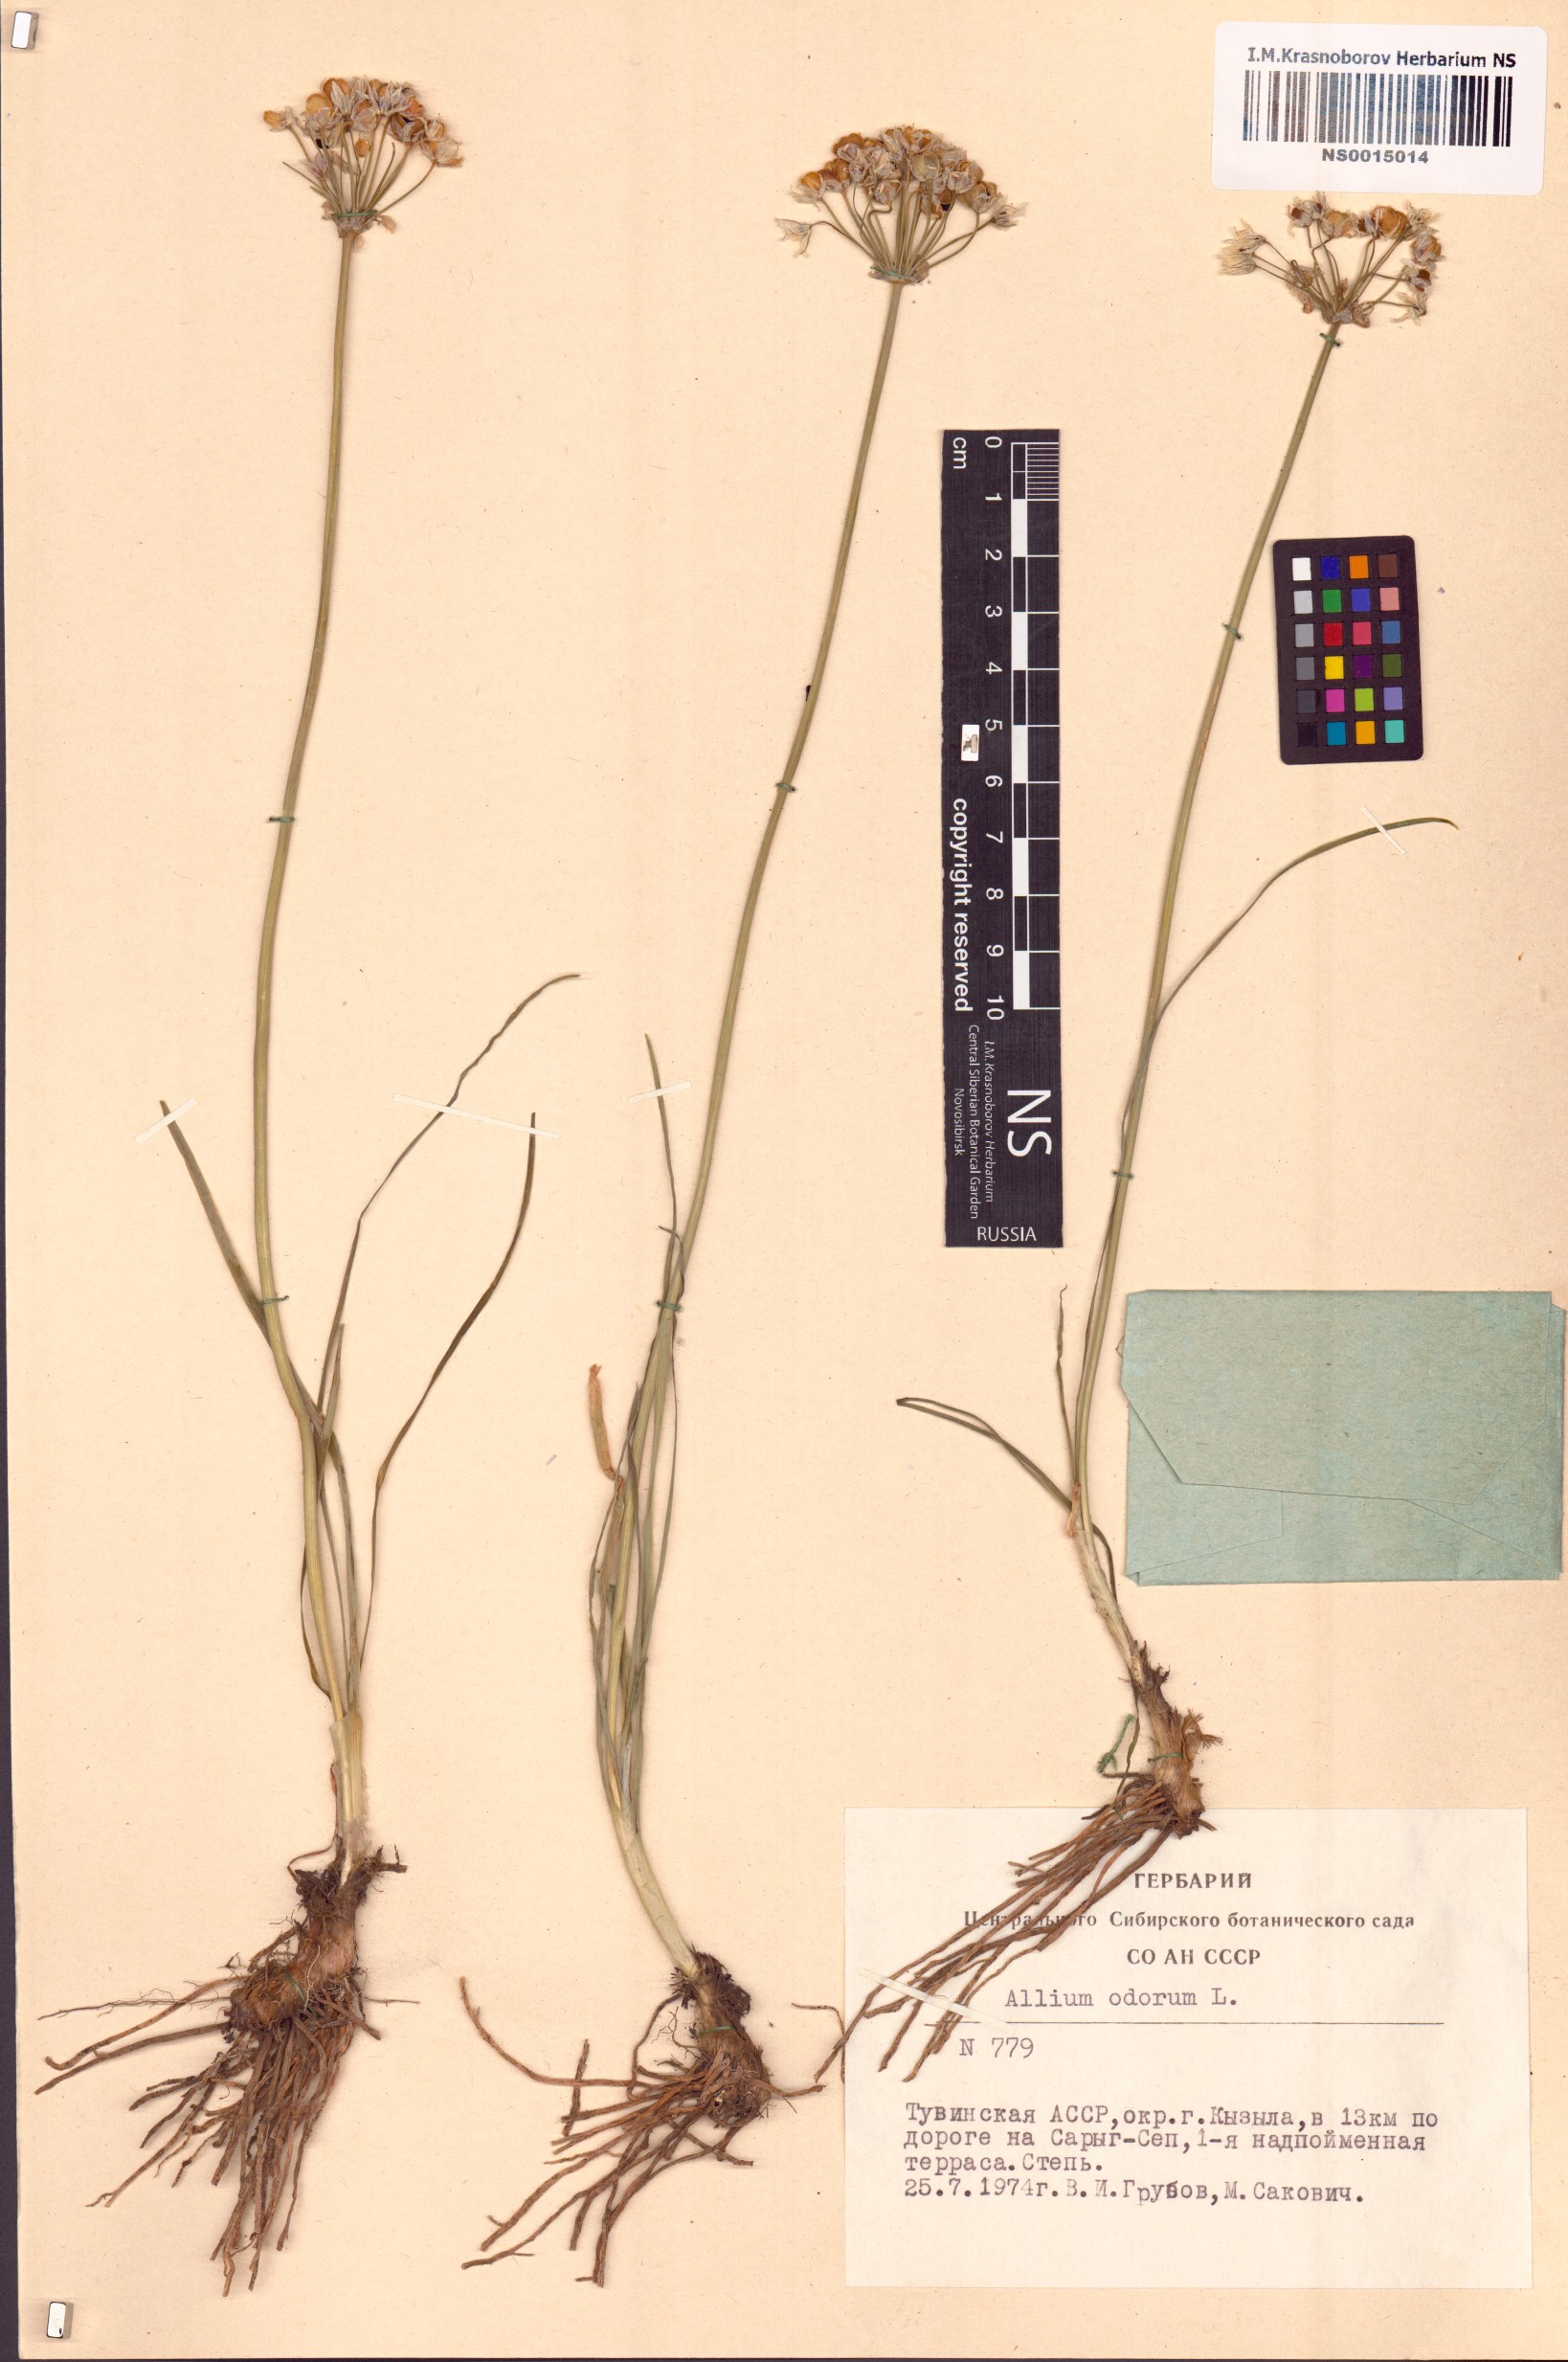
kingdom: Plantae
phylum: Tracheophyta
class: Liliopsida
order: Asparagales
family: Amaryllidaceae
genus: Allium
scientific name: Allium ramosum
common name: Fragrant garlic
